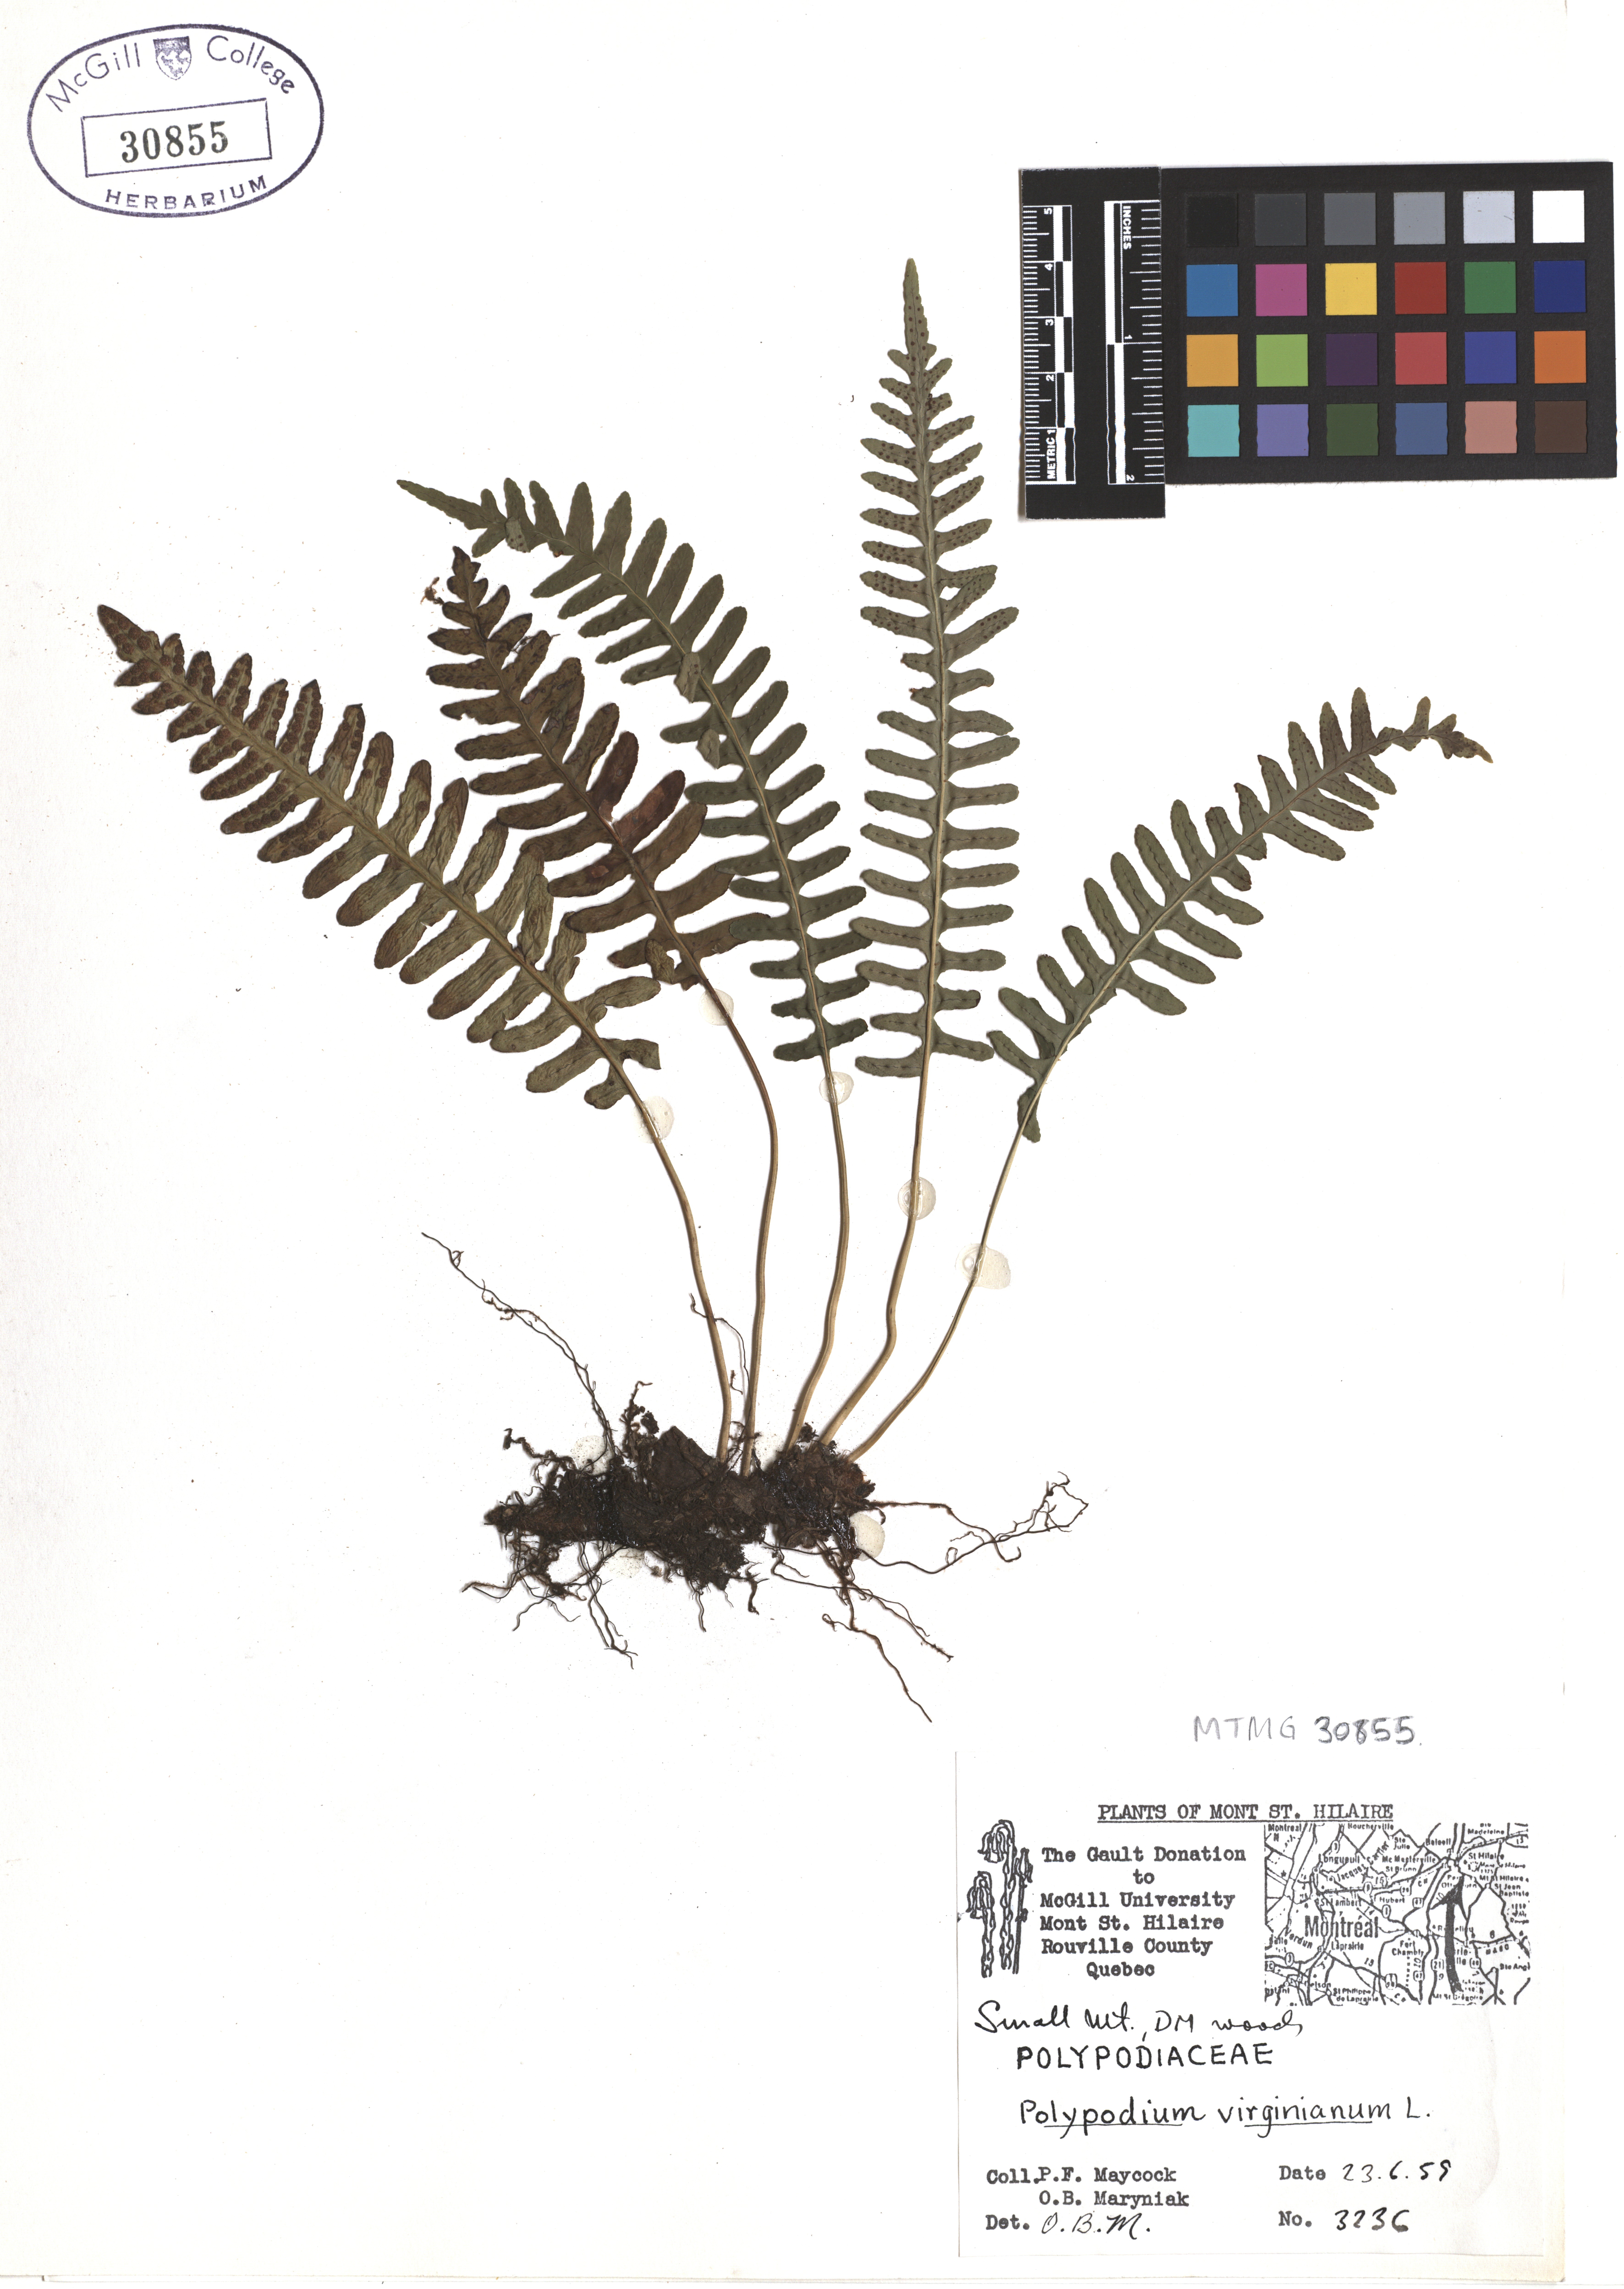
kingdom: Plantae
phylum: Tracheophyta
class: Polypodiopsida
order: Polypodiales
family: Polypodiaceae
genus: Polypodium
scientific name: Polypodium virginianum
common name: American wall fern
